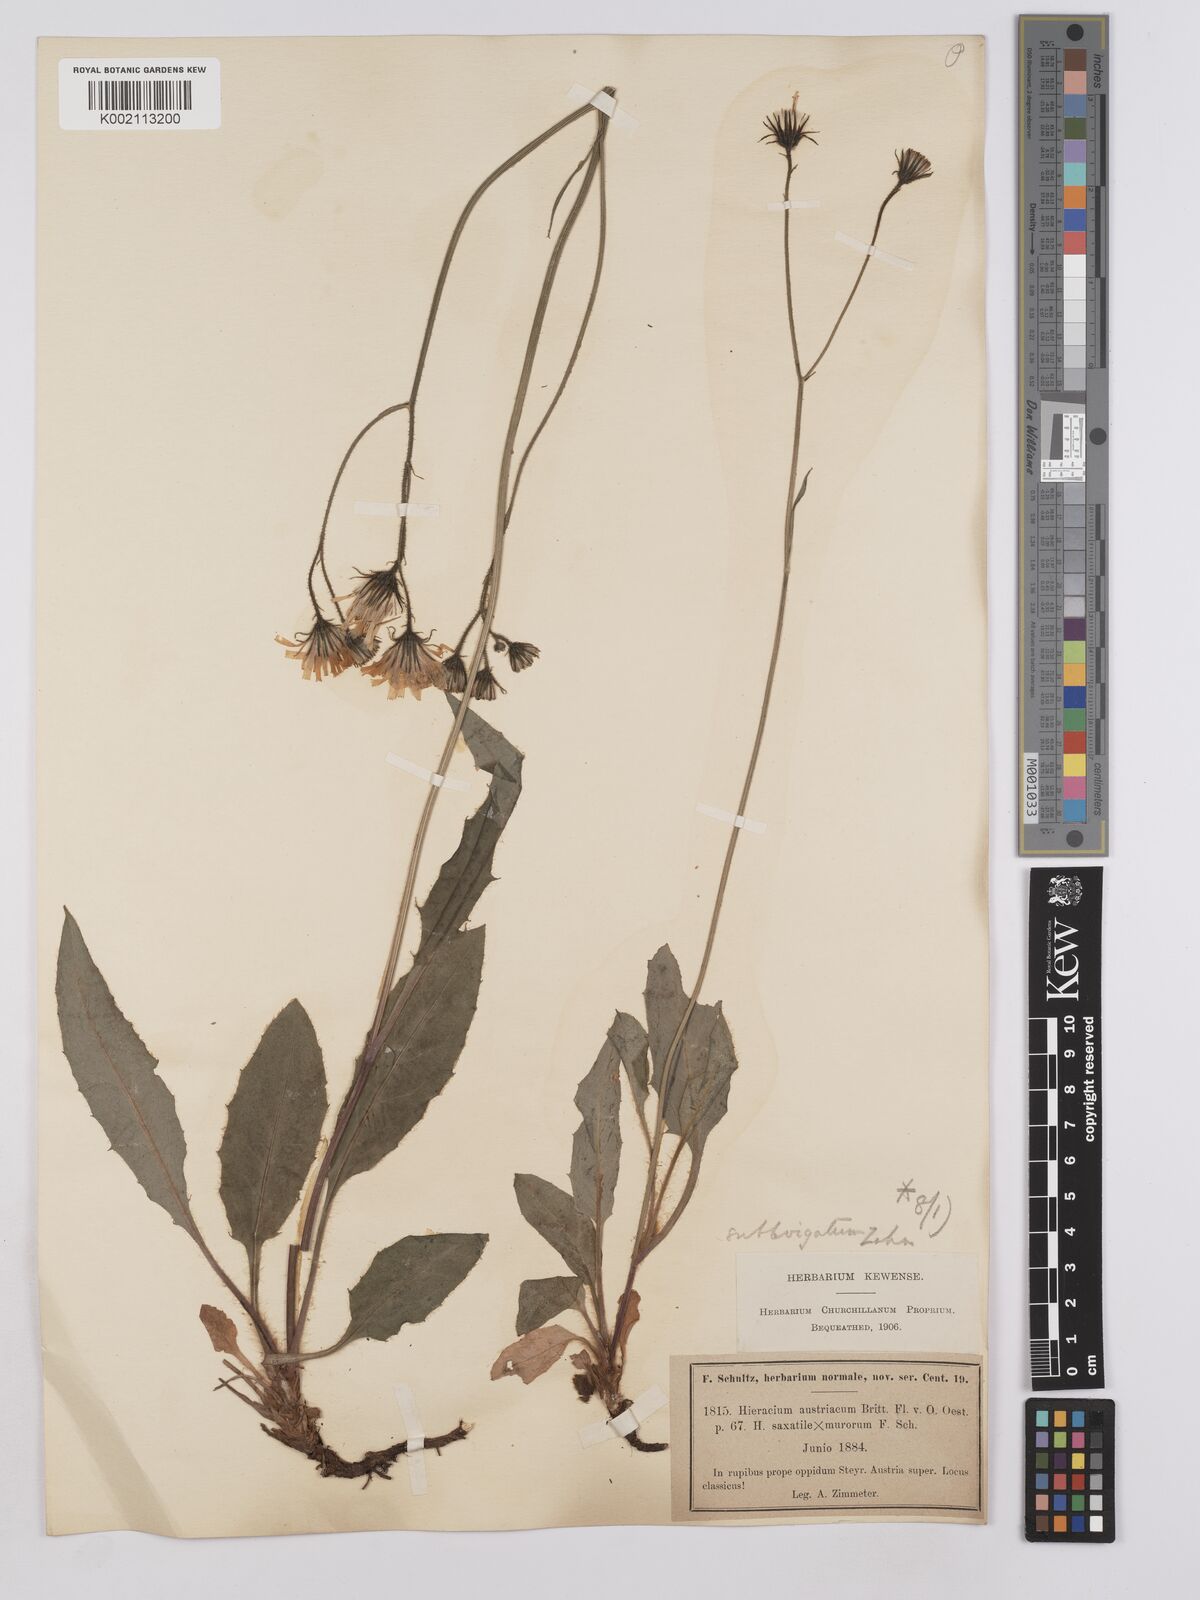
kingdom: Plantae
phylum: Tracheophyta
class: Magnoliopsida
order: Asterales
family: Asteraceae
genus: Crepis
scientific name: Crepis blattarioides
